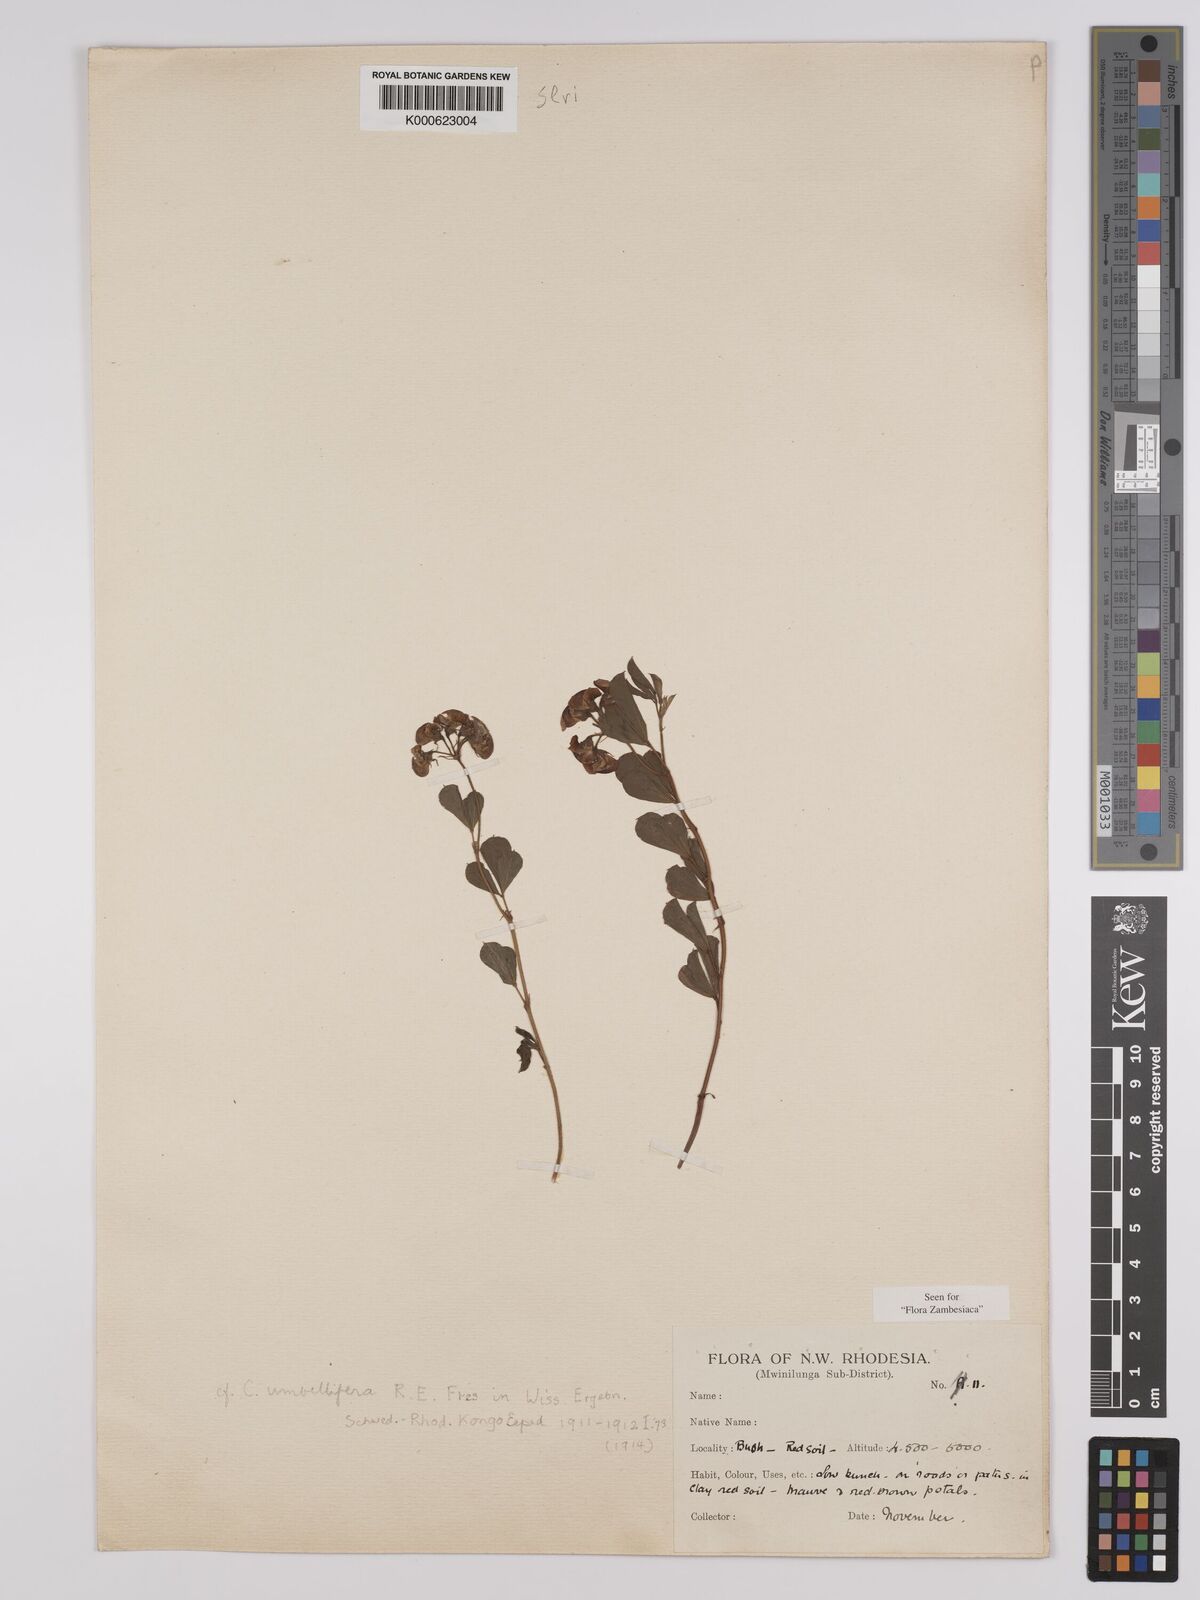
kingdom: Plantae
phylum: Tracheophyta
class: Magnoliopsida
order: Fabales
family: Fabaceae
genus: Crotalaria
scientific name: Crotalaria umbellifera
